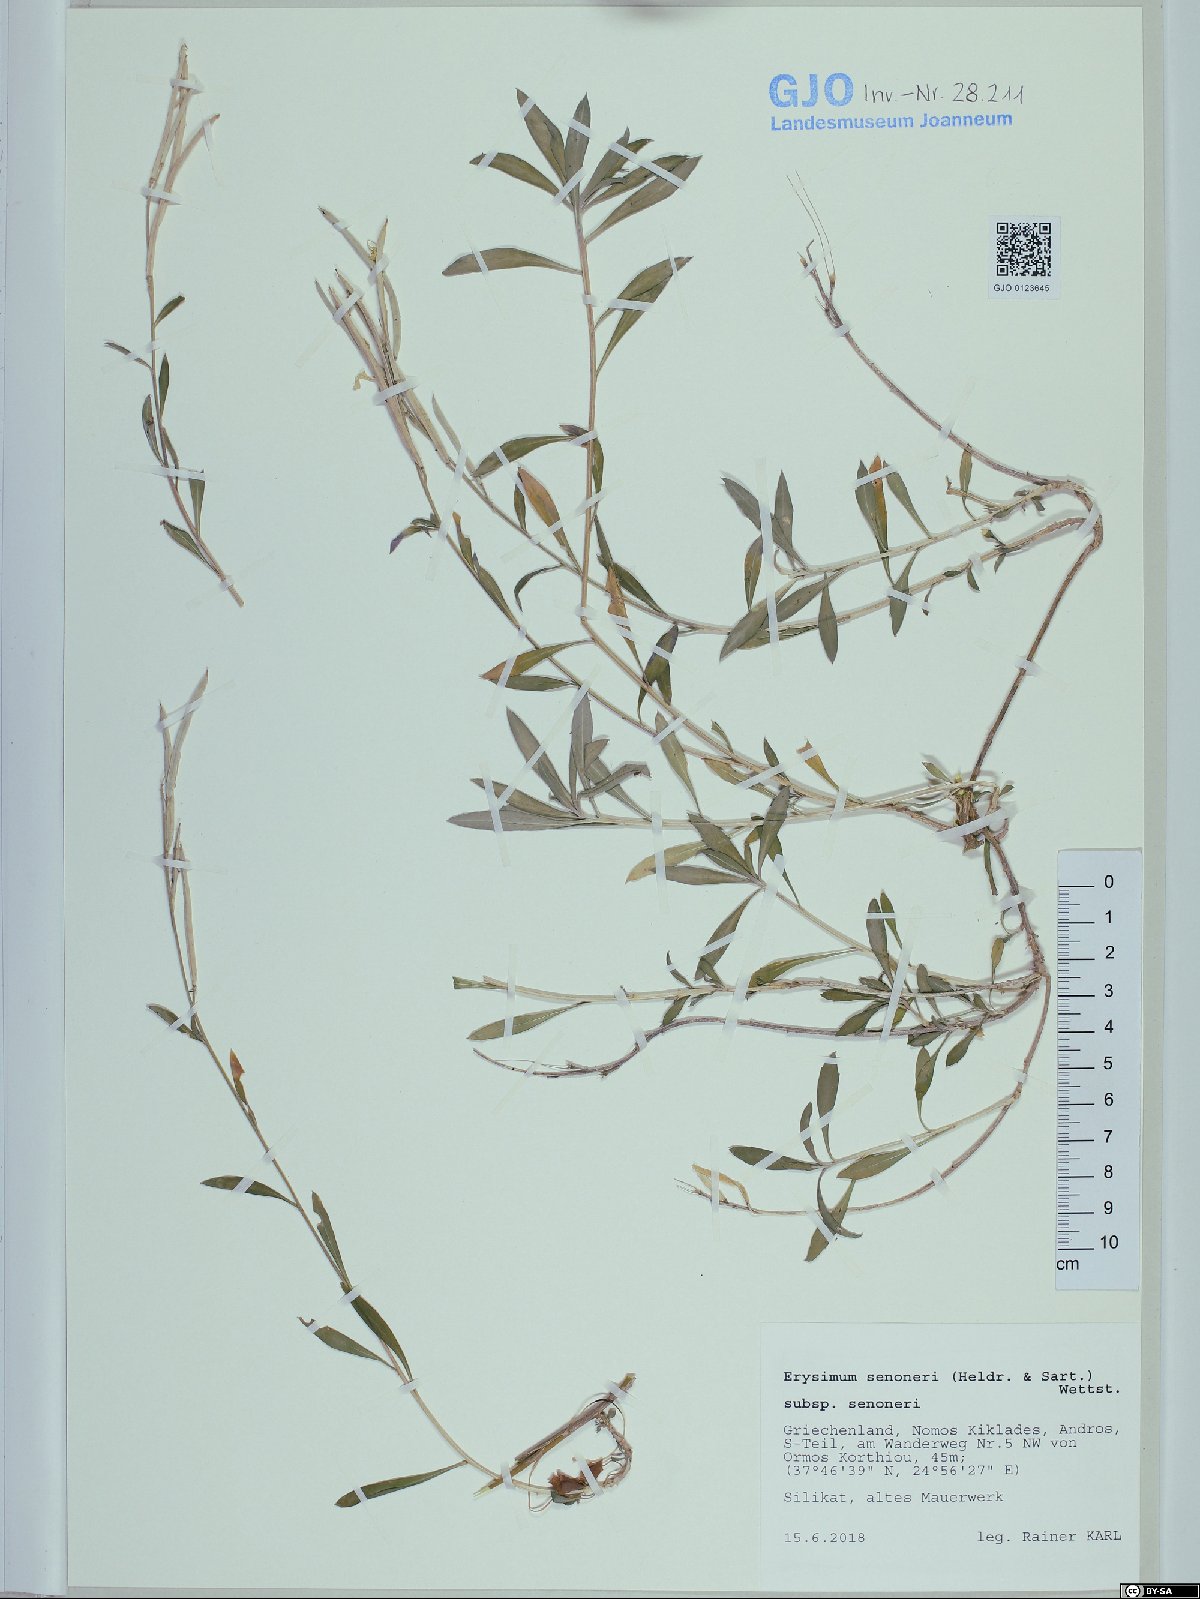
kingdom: Plantae
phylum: Tracheophyta
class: Magnoliopsida
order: Brassicales
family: Brassicaceae
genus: Erysimum
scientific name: Erysimum senoneri
